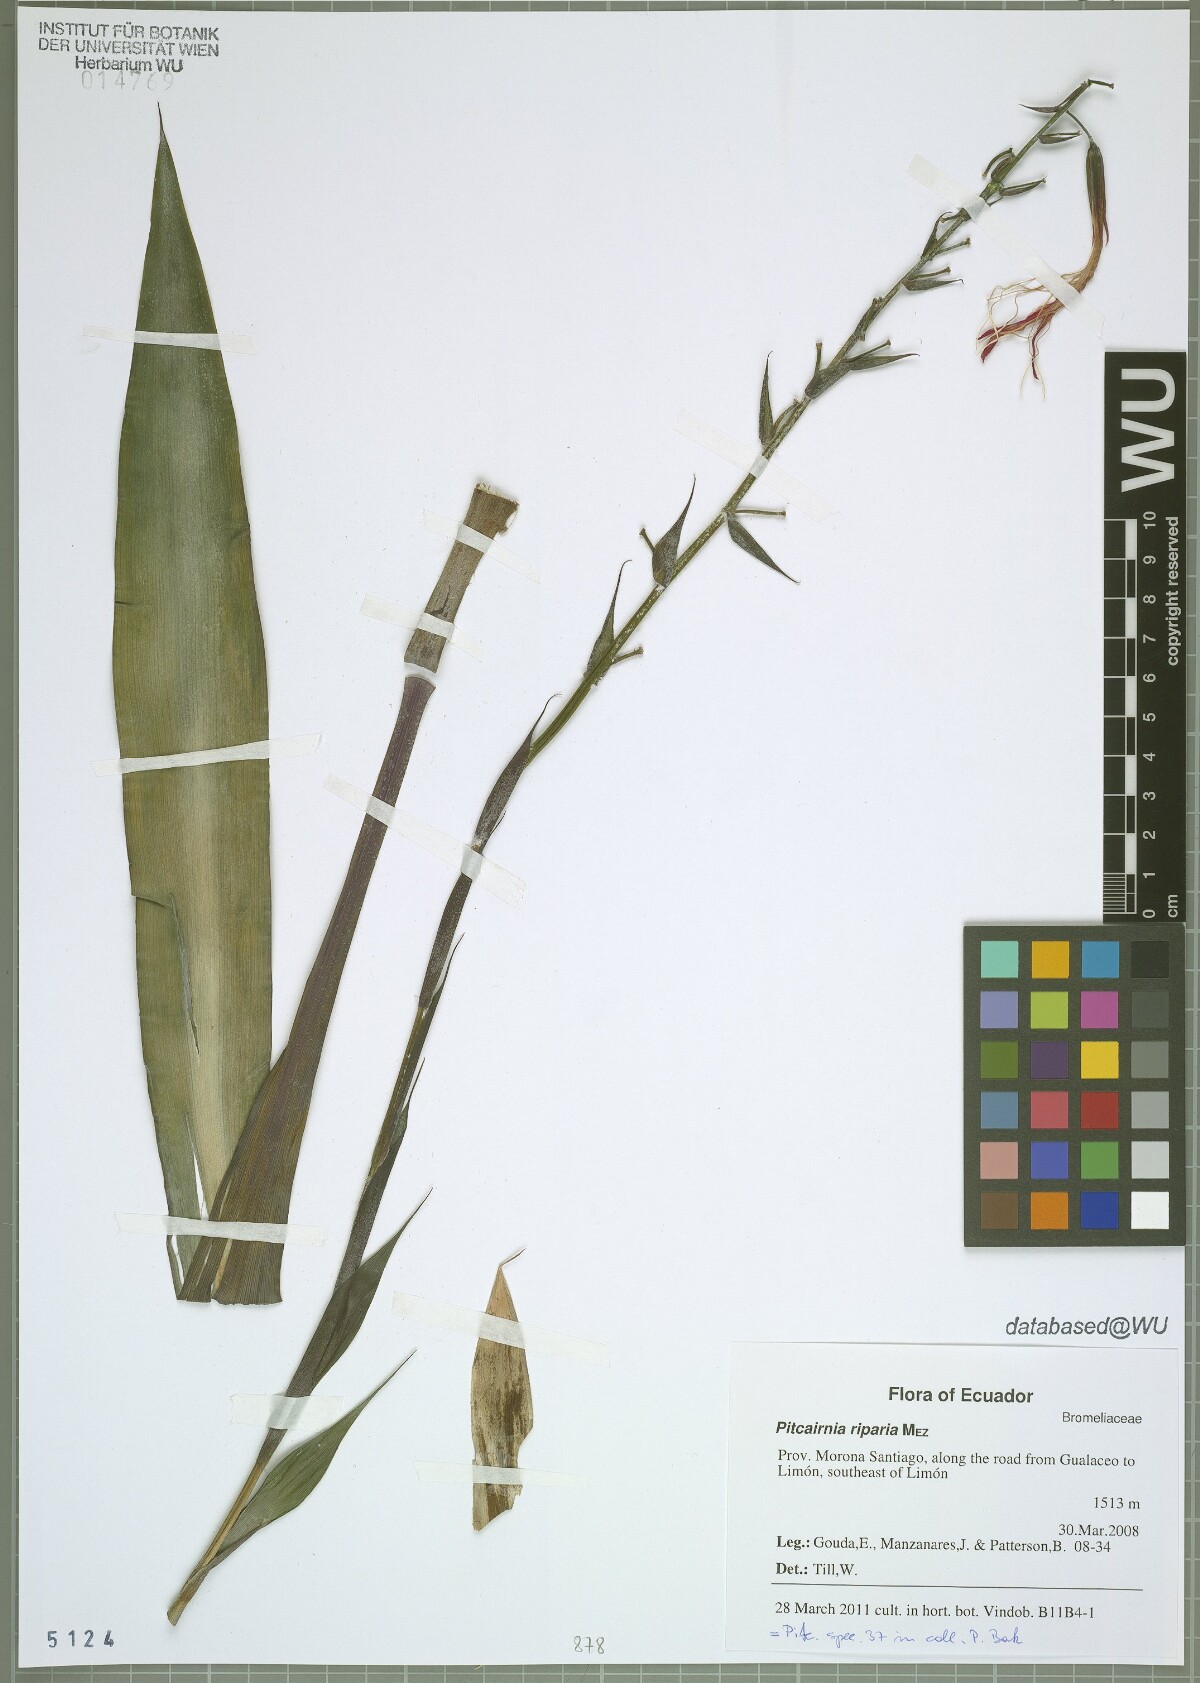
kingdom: Plantae
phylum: Tracheophyta
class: Liliopsida
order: Poales
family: Bromeliaceae
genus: Pitcairnia
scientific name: Pitcairnia riparia
